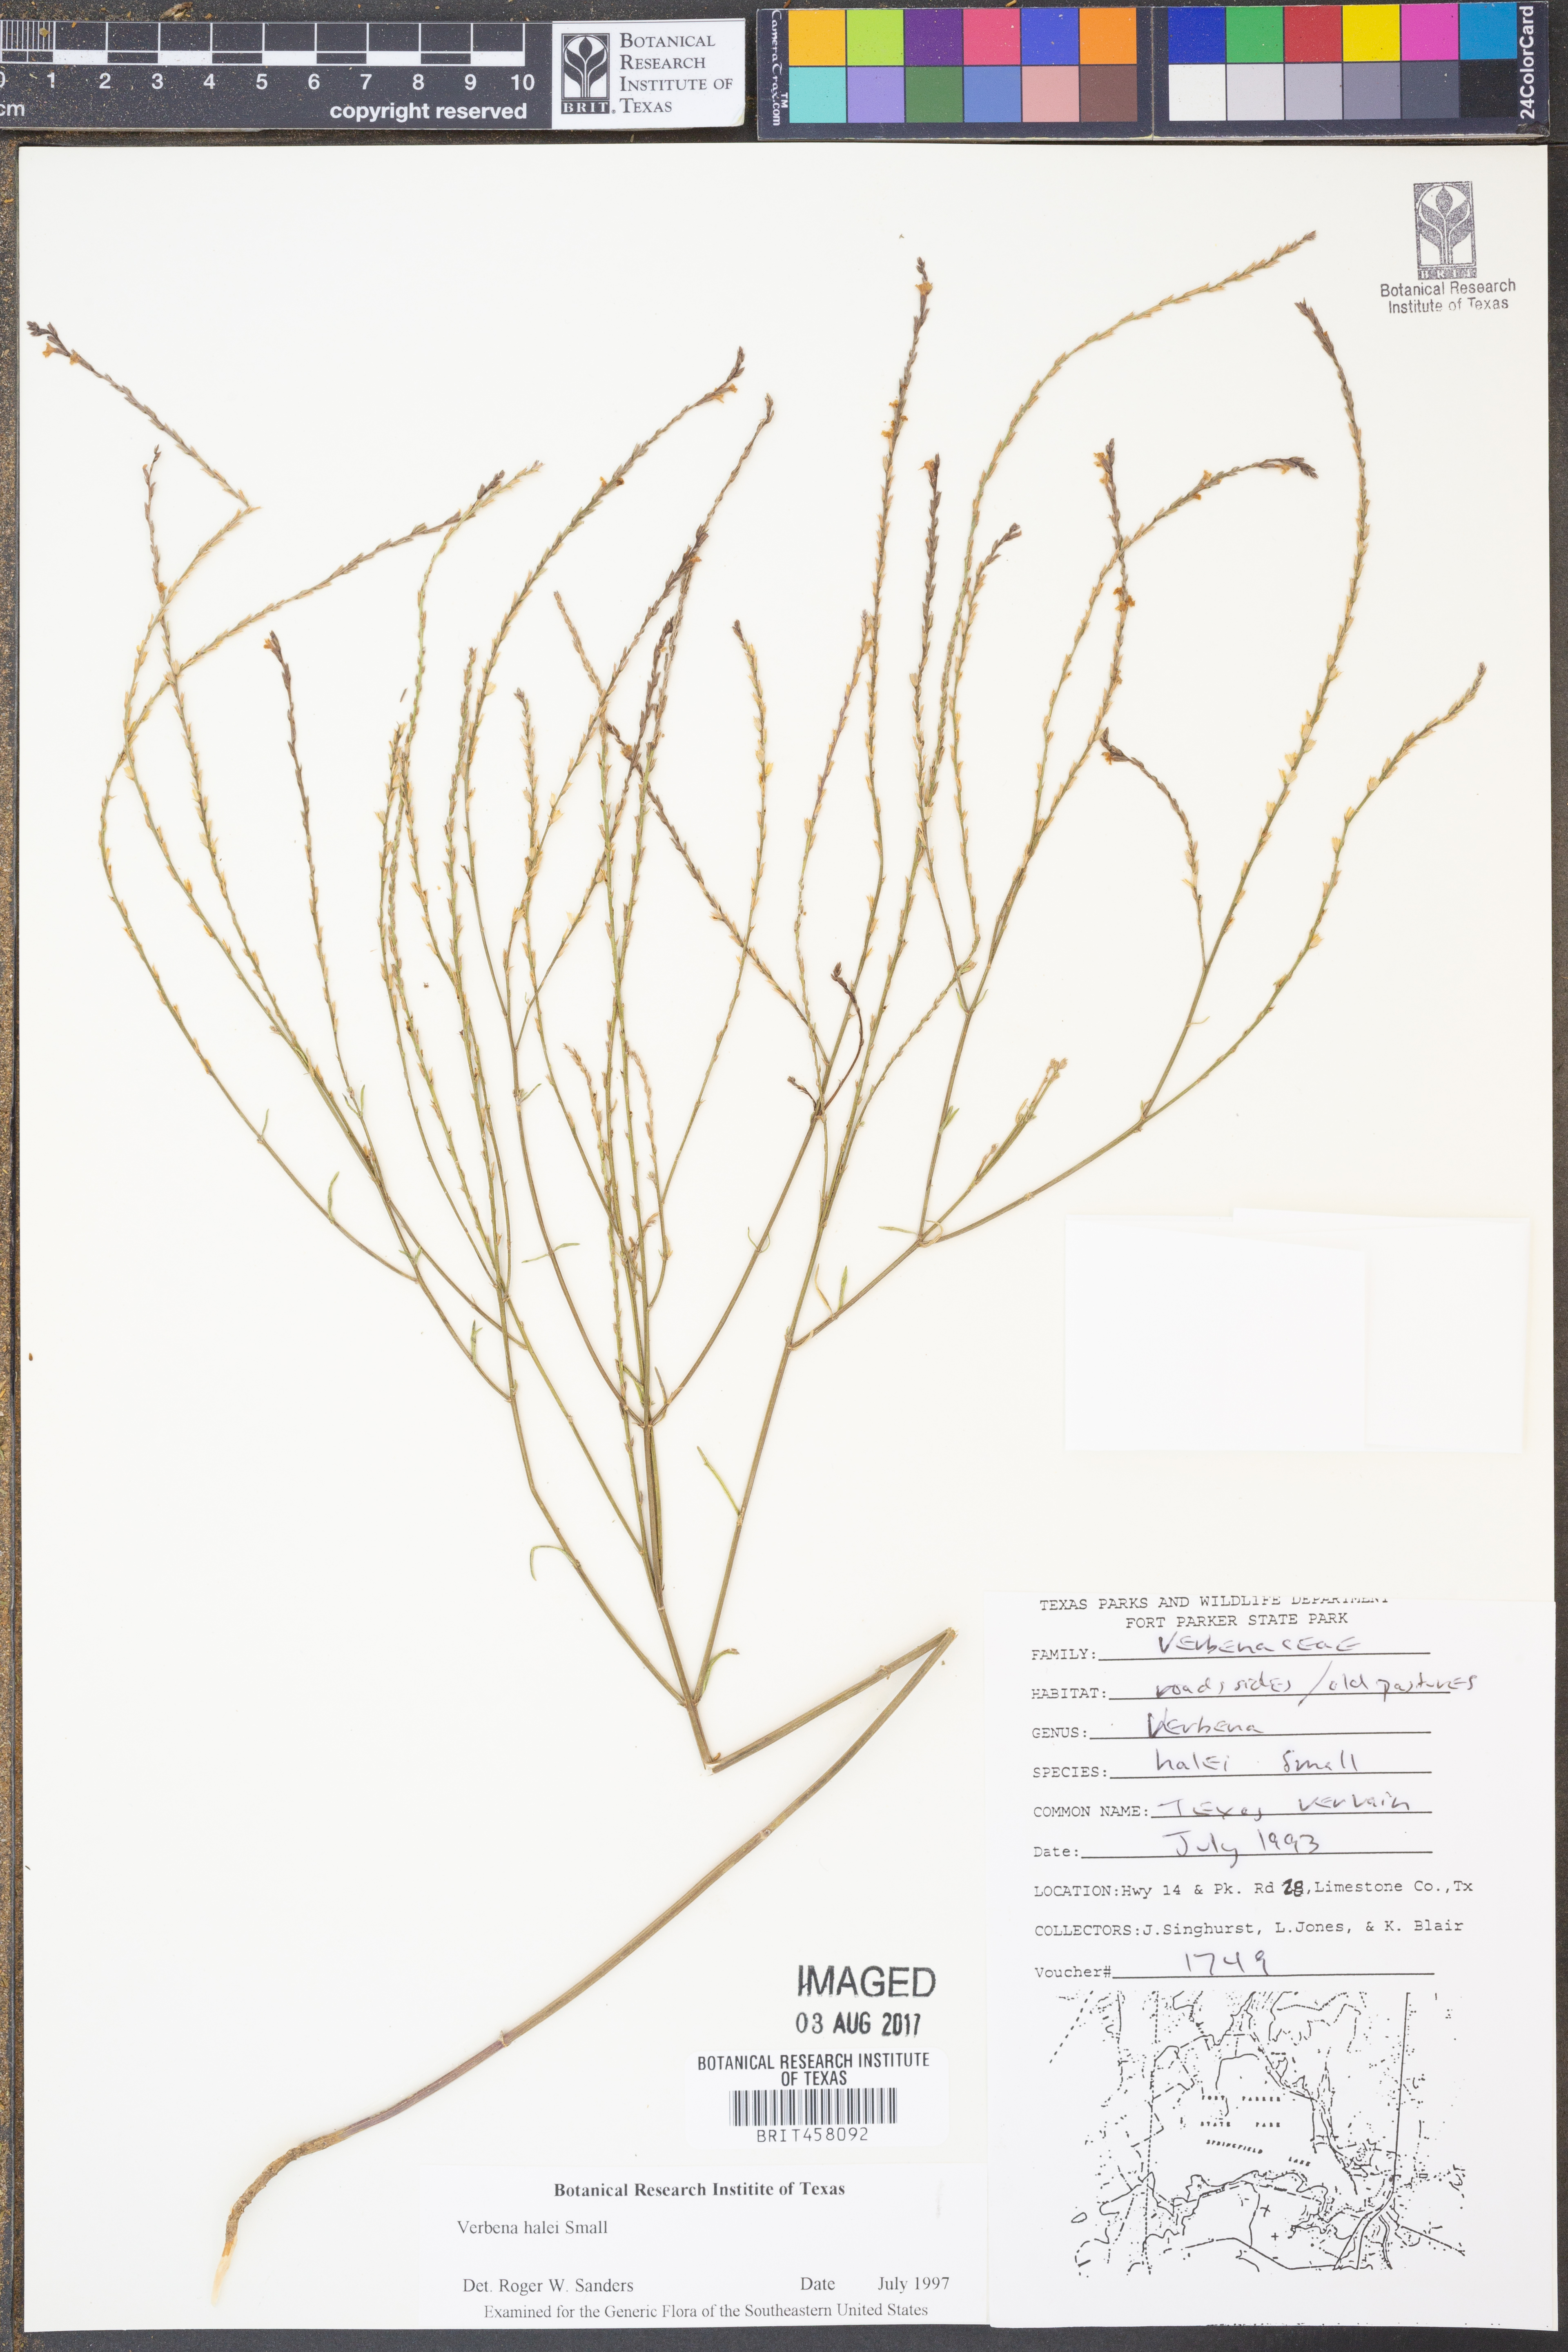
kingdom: Plantae
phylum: Tracheophyta
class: Magnoliopsida
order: Lamiales
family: Verbenaceae
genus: Verbena
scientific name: Verbena halei
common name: Texas vervain
